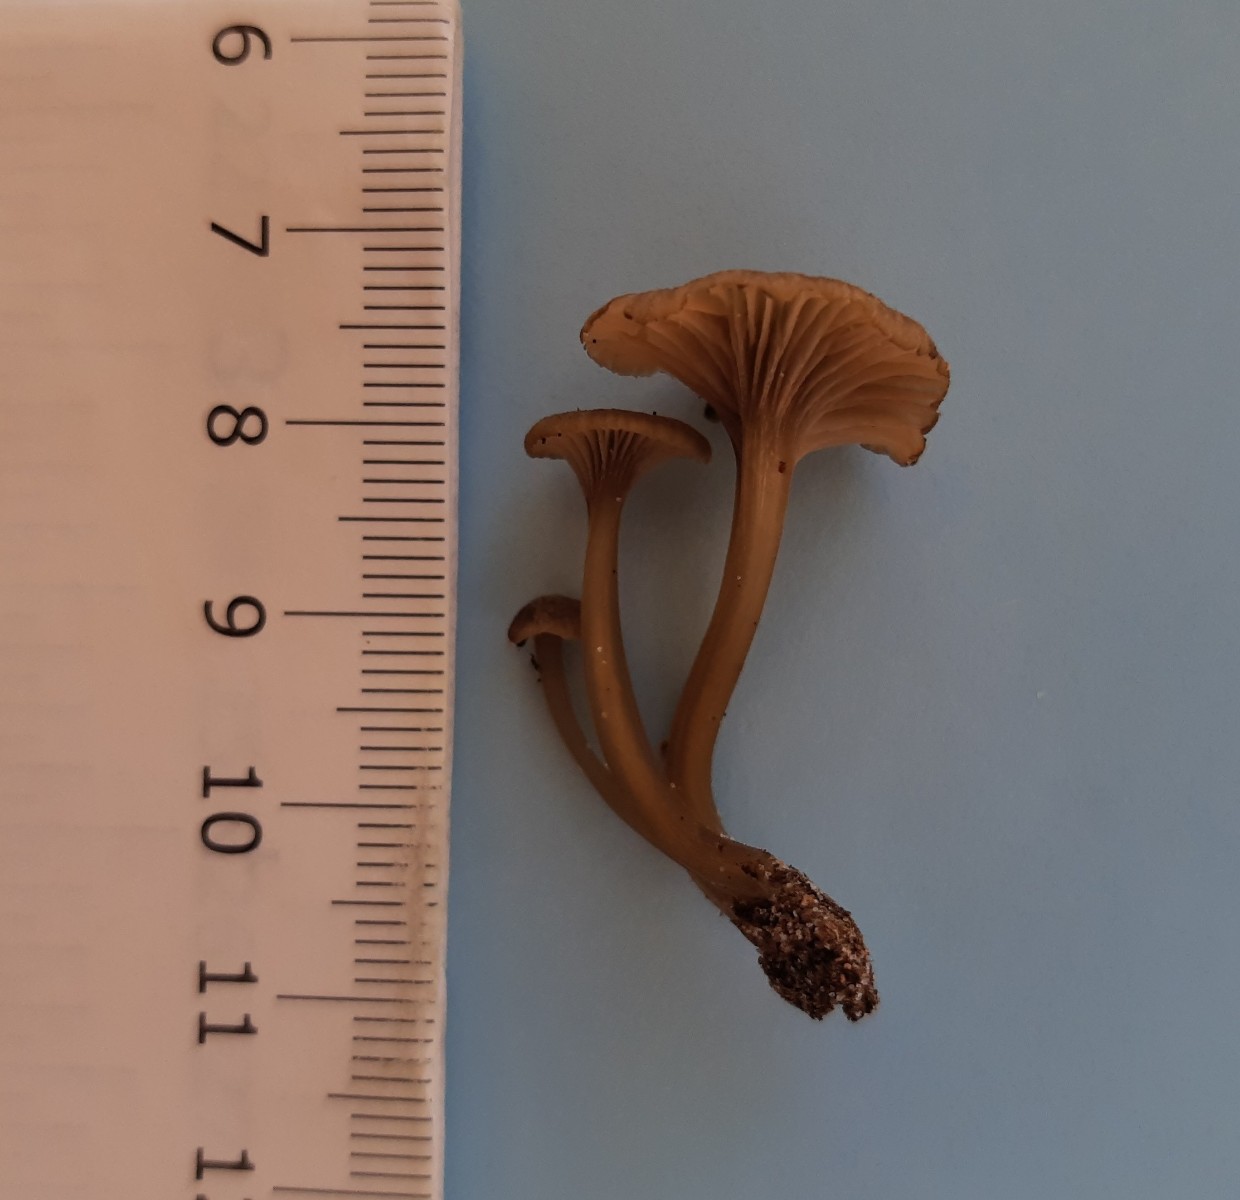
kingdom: Fungi
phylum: Basidiomycota
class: Agaricomycetes
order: Agaricales
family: Entolomataceae
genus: Entoloma
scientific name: Entoloma rhodocylix
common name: fjernbladet rødblad
